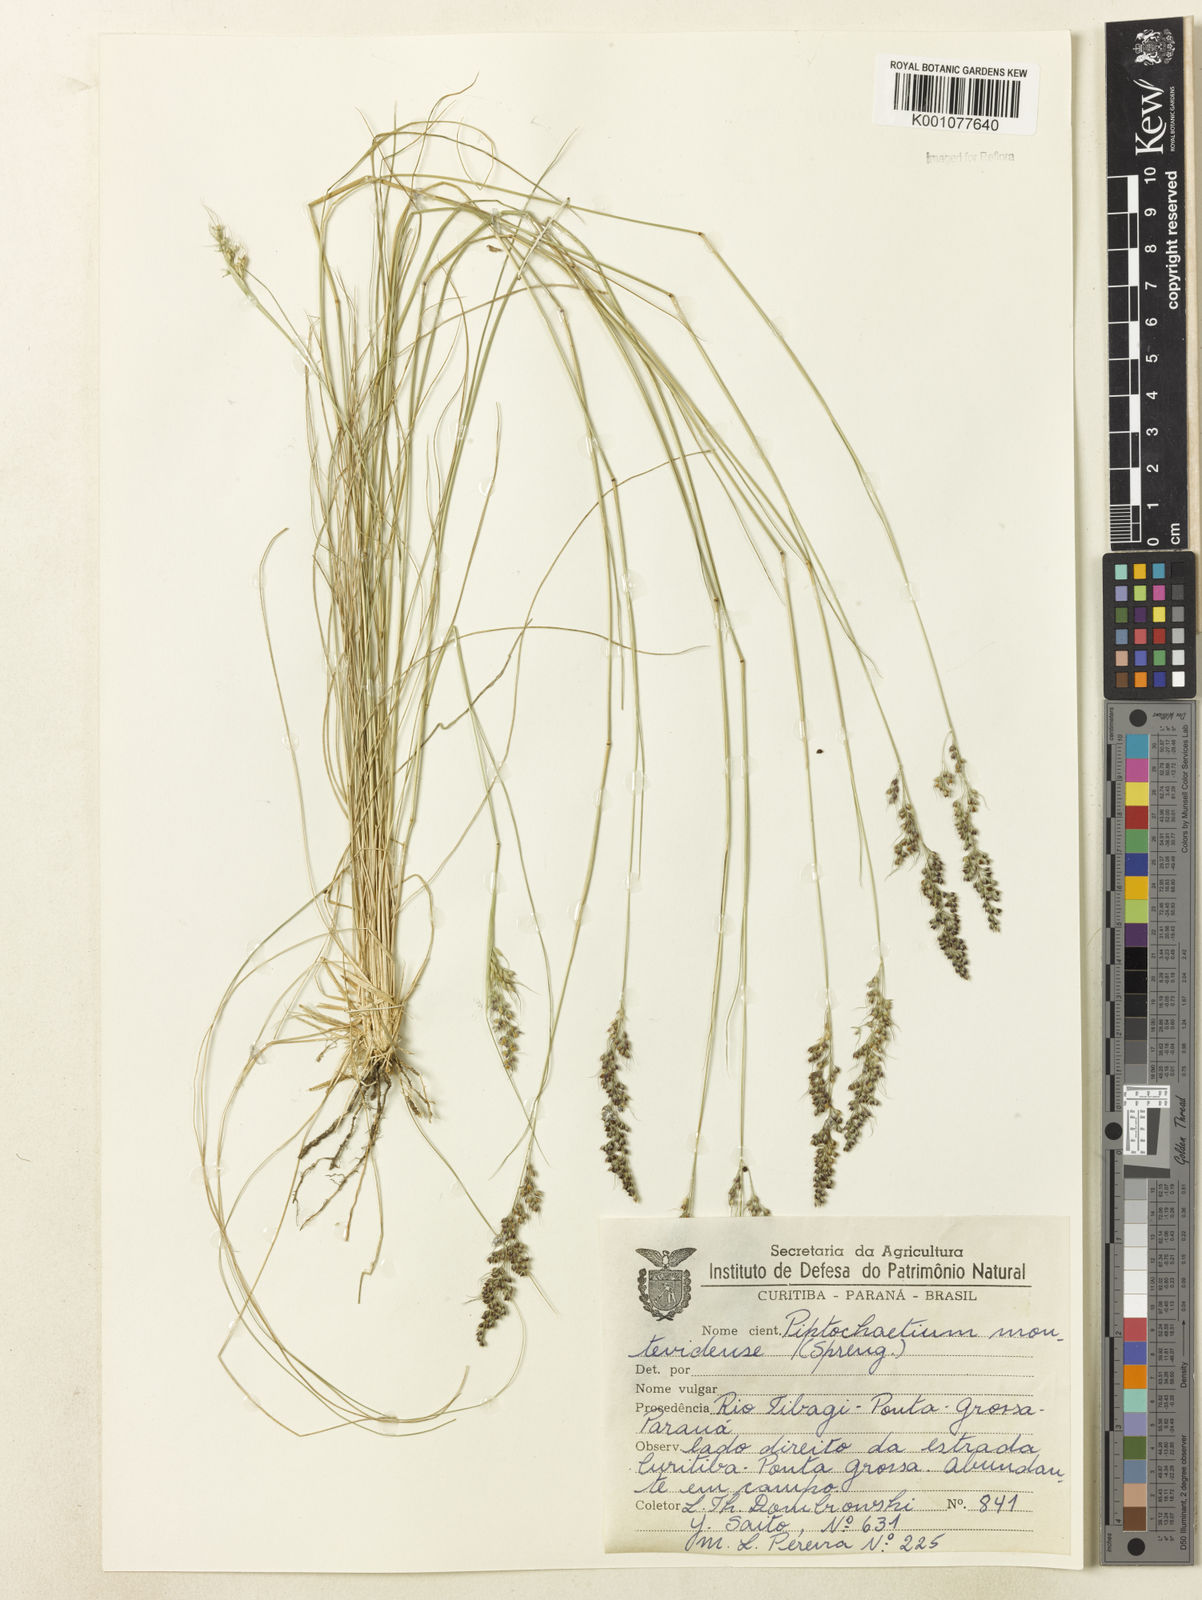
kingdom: Plantae
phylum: Tracheophyta
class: Liliopsida
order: Poales
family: Poaceae
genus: Piptochaetium
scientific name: Piptochaetium montevidense
